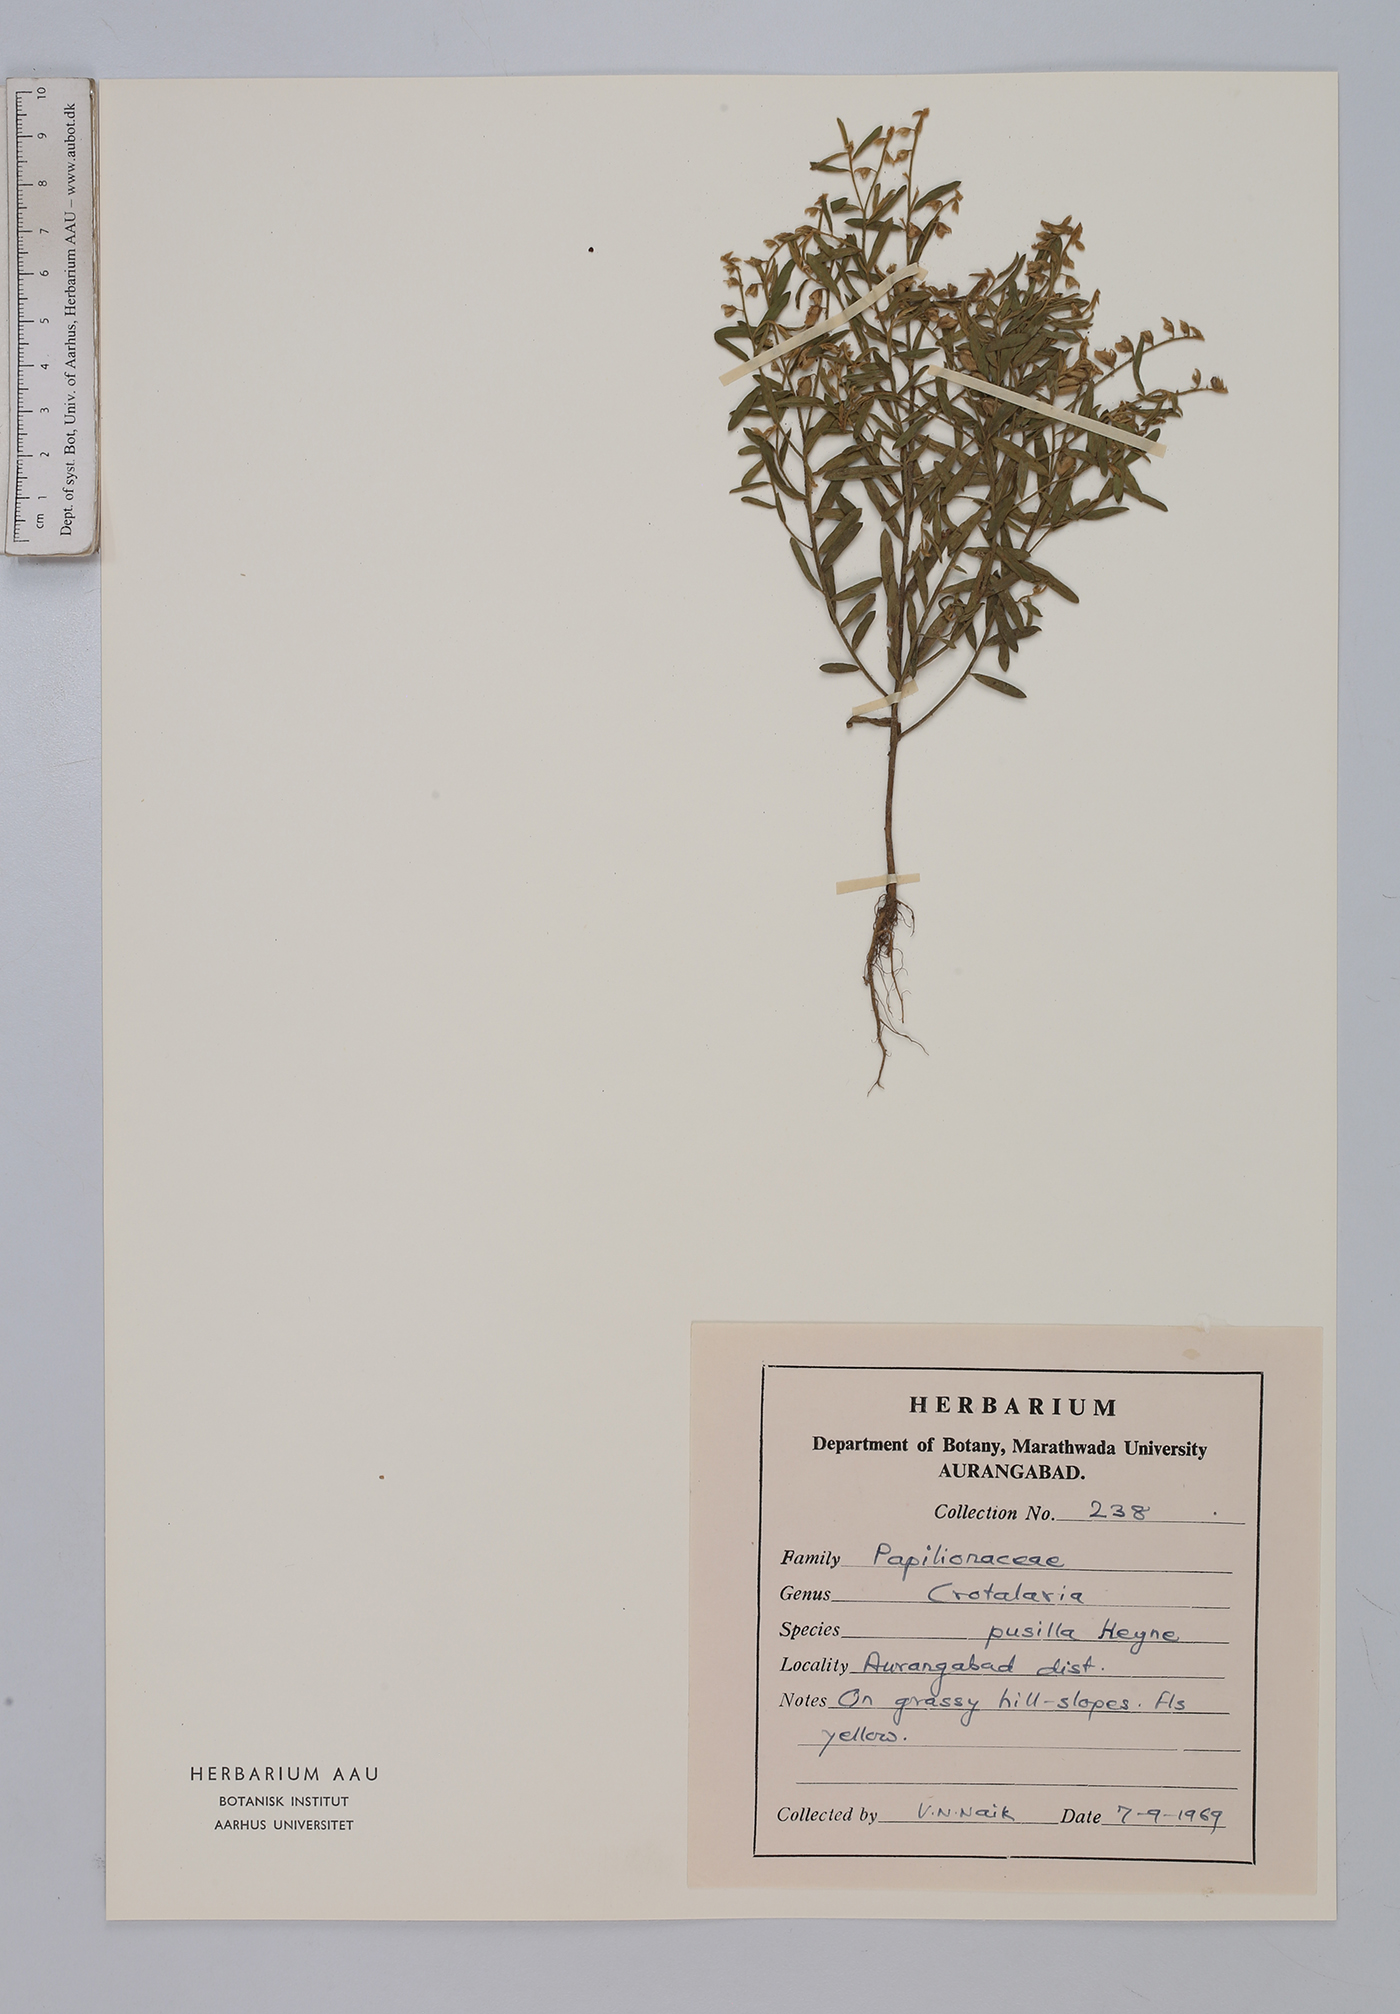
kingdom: Plantae
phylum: Tracheophyta
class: Magnoliopsida
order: Fabales
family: Fabaceae
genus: Crotalaria
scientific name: Crotalaria pusilla
